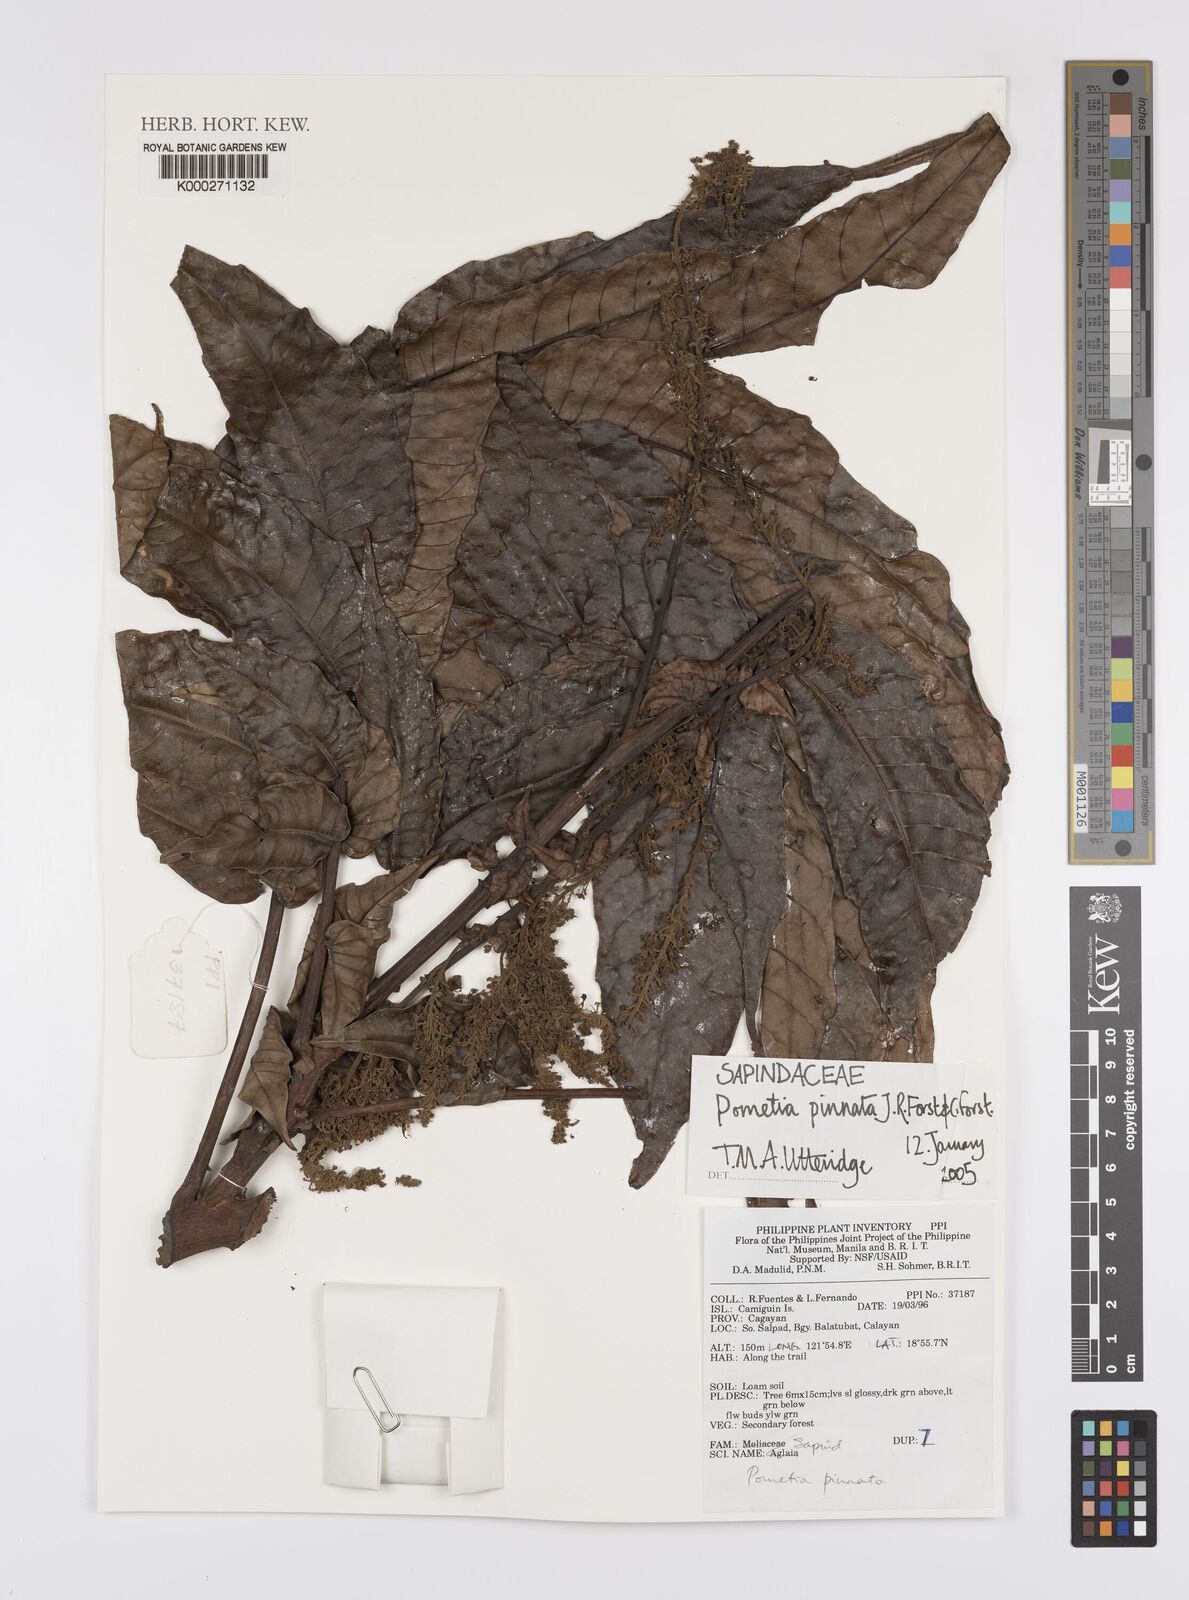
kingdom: Plantae
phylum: Tracheophyta
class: Magnoliopsida
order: Sapindales
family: Sapindaceae
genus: Pometia
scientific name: Pometia pinnata
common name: Oceanic lychee
